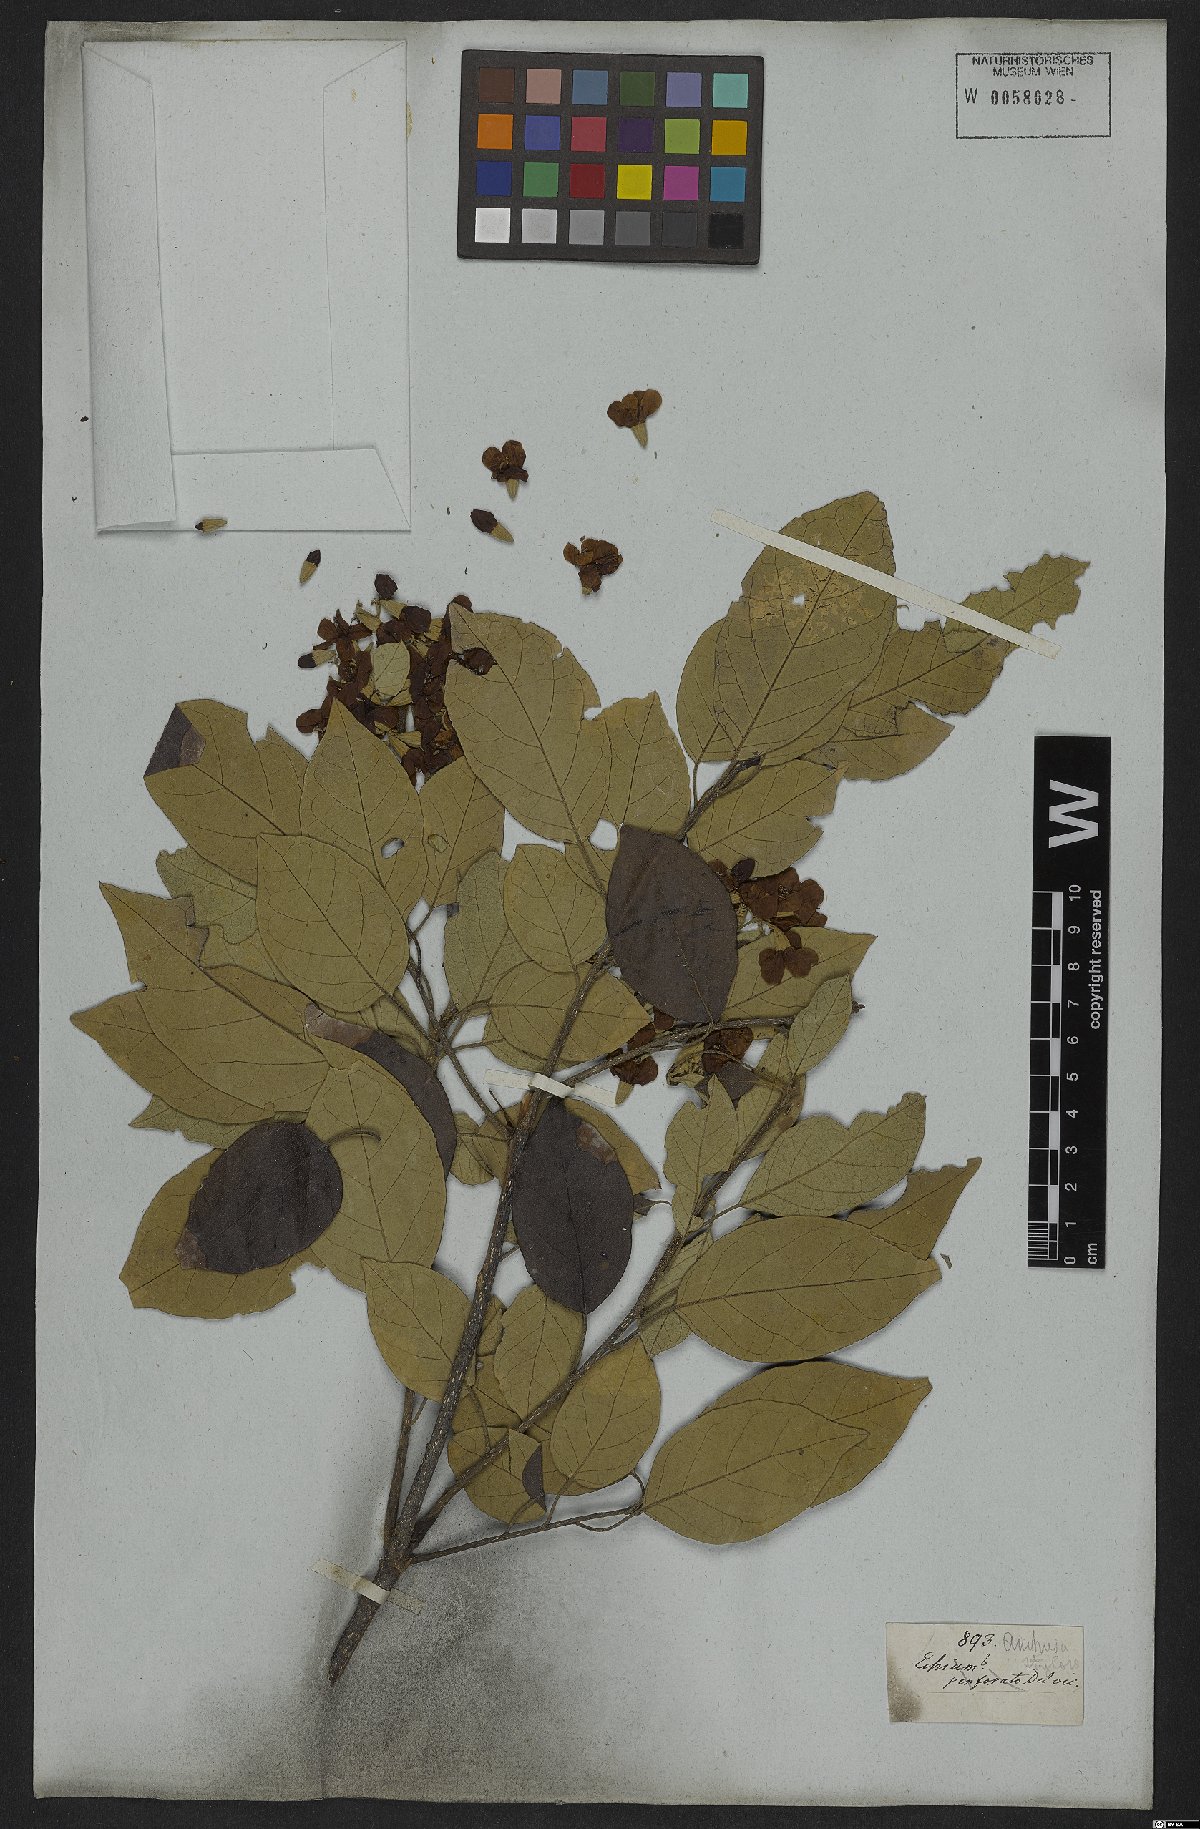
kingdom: Plantae
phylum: Tracheophyta
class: Magnoliopsida
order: Boraginales
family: Cordiaceae
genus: Cordia
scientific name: Cordia alliodora
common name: Spanish elm
